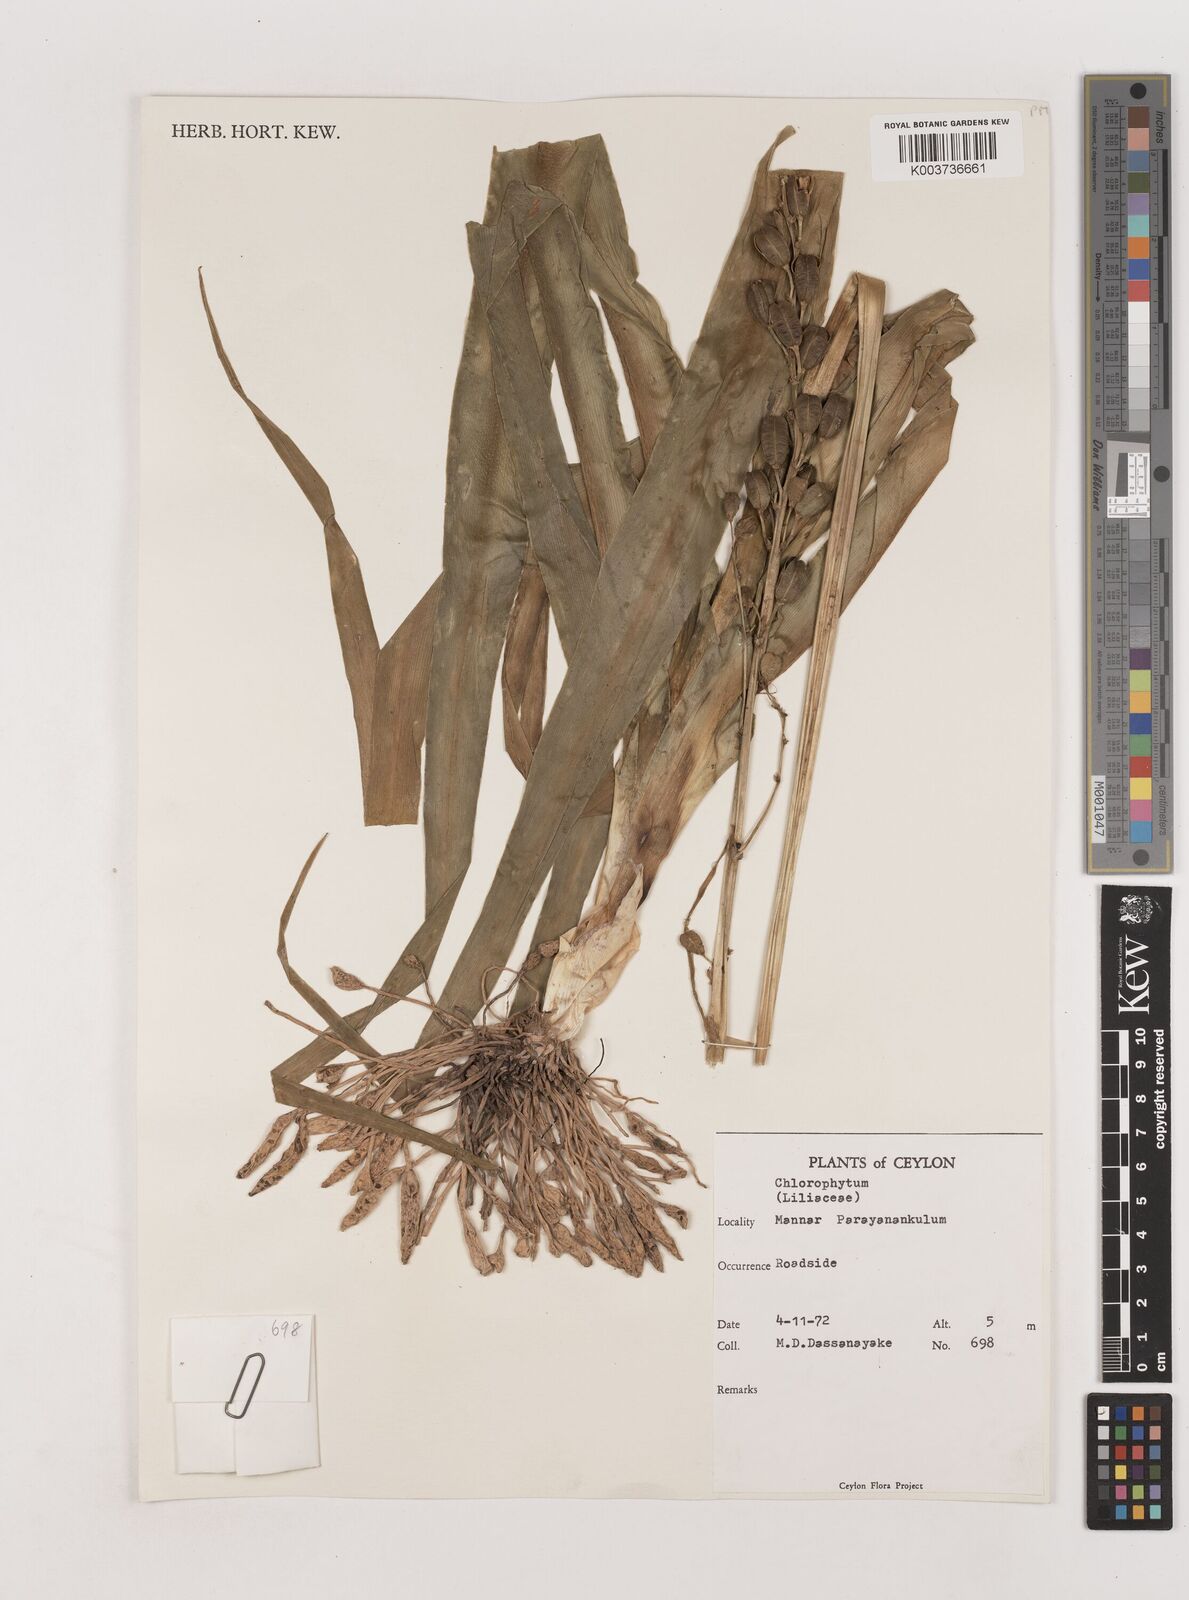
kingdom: Plantae
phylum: Tracheophyta
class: Liliopsida
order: Asparagales
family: Asparagaceae
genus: Chlorophytum
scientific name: Chlorophytum
